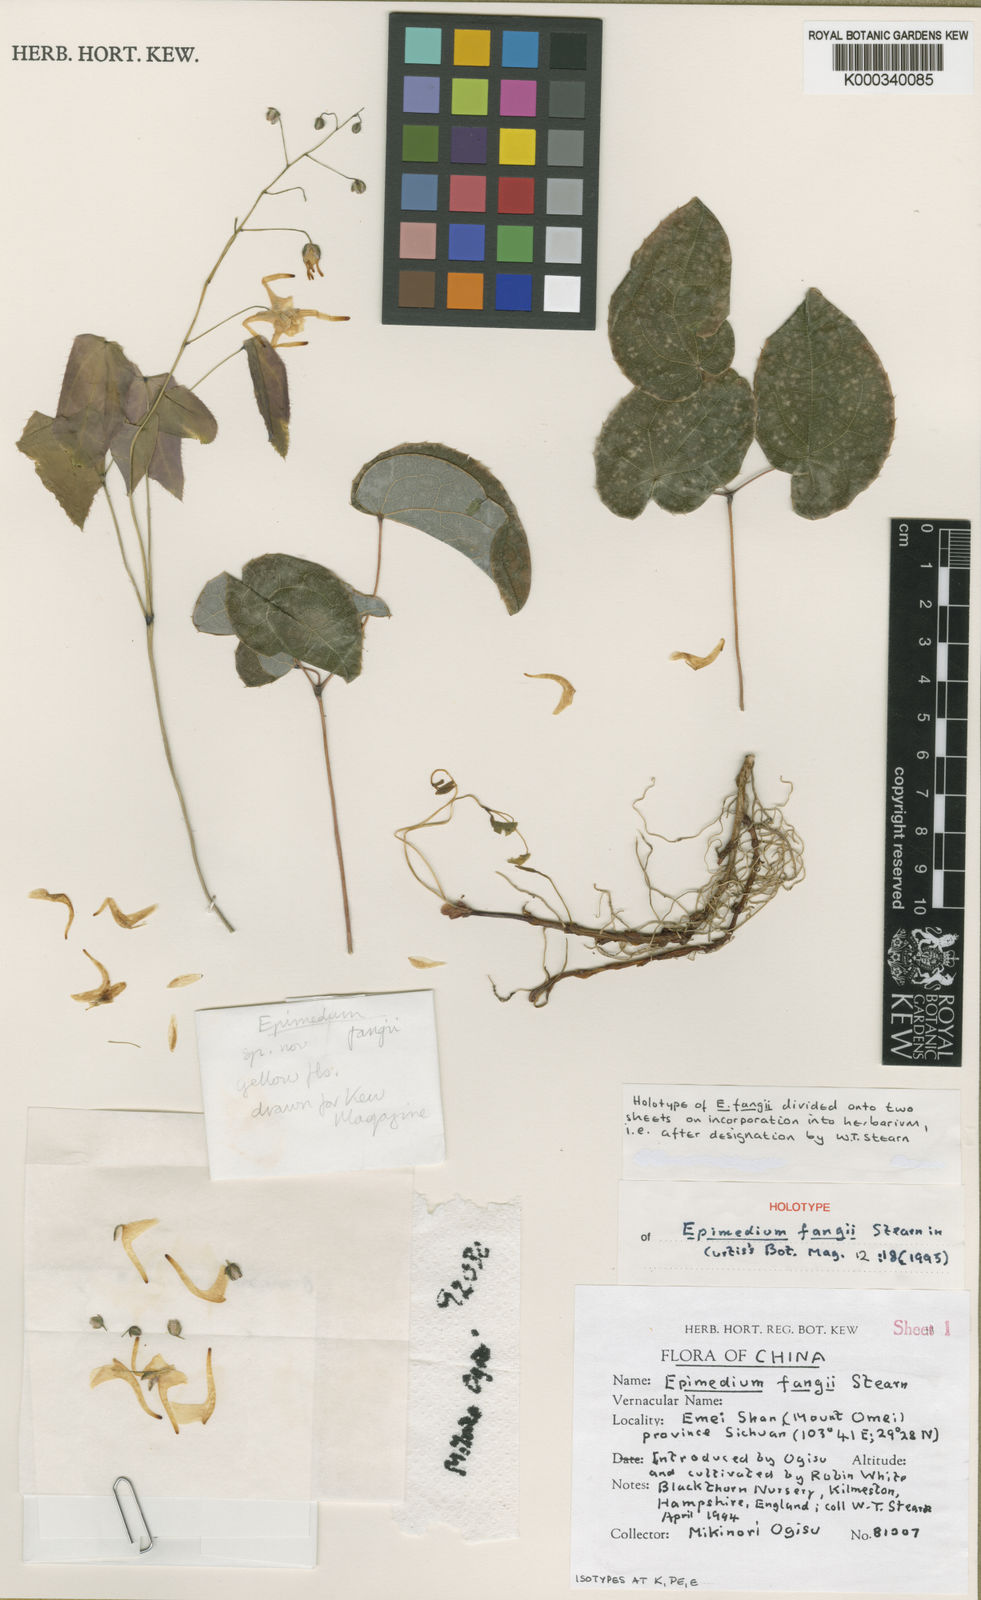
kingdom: Plantae
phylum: Tracheophyta
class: Magnoliopsida
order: Ranunculales
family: Berberidaceae
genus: Epimedium
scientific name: Epimedium fangii
